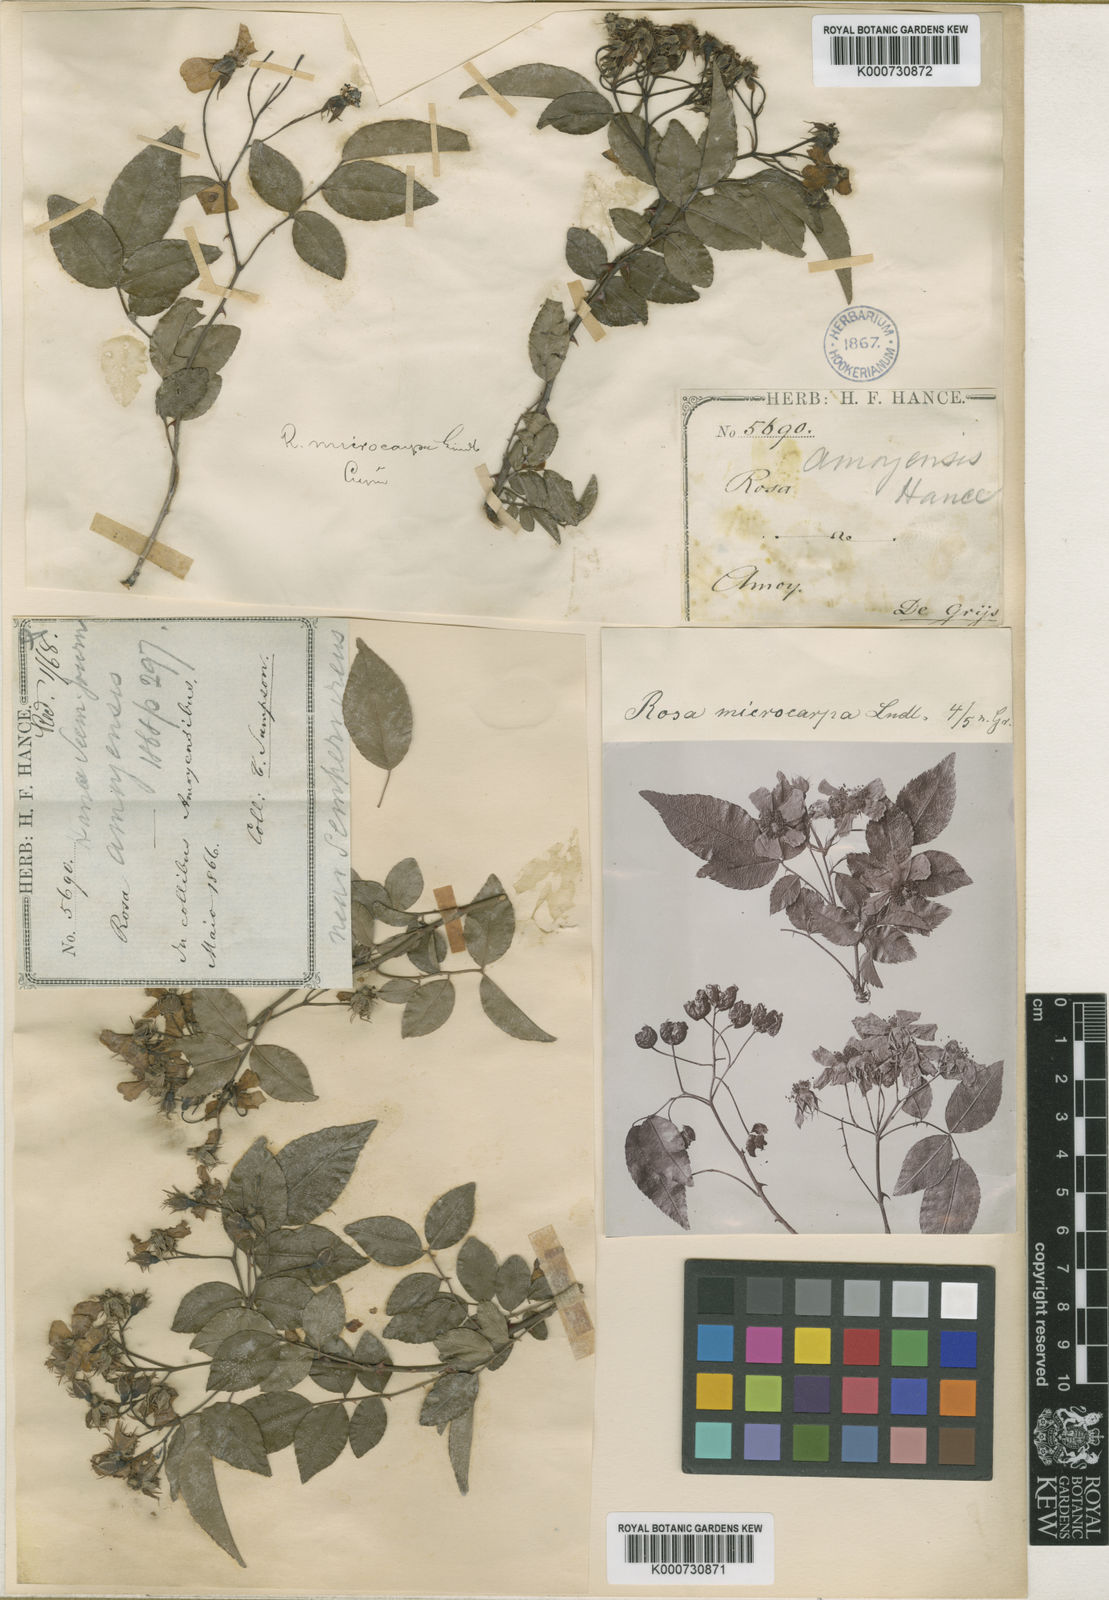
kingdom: Plantae
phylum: Tracheophyta
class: Magnoliopsida
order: Rosales
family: Rosaceae
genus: Rosa
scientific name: Rosa indica
